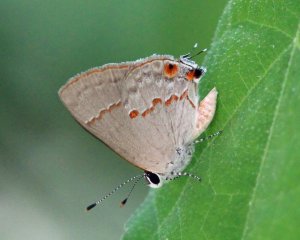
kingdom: Animalia
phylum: Arthropoda
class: Insecta
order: Lepidoptera
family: Lycaenidae
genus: Thecla
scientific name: Thecla azia
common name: Gray Ministreak
